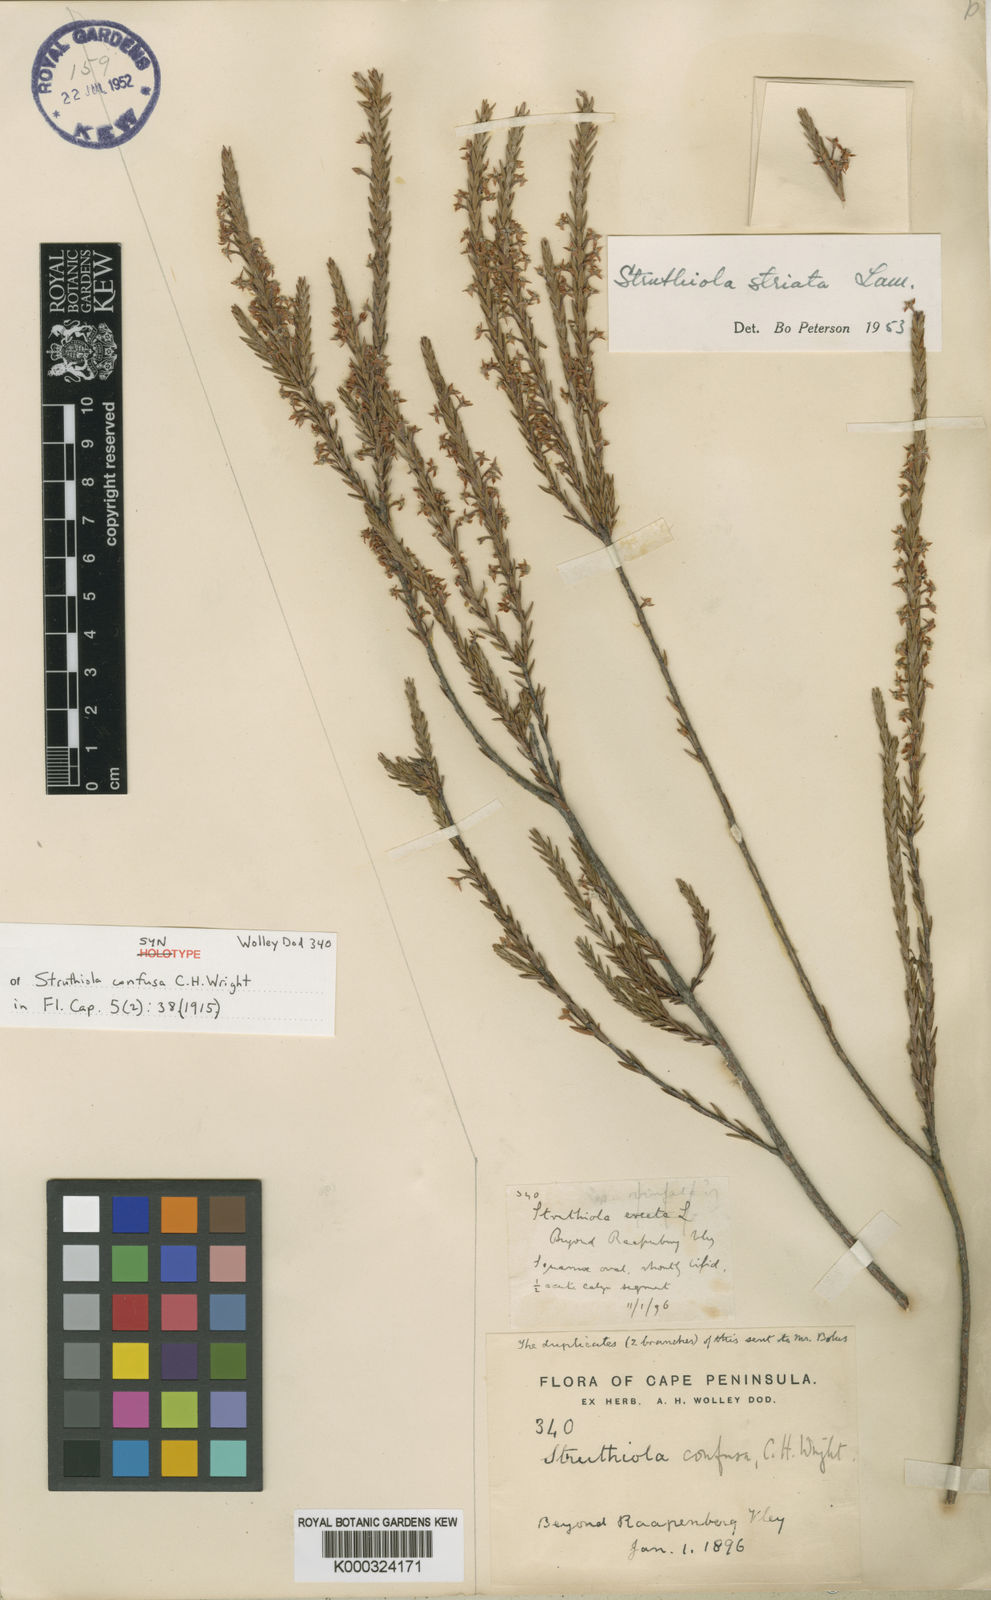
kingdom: Plantae
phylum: Tracheophyta
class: Magnoliopsida
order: Malvales
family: Thymelaeaceae
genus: Struthiola
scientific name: Struthiola confusa
